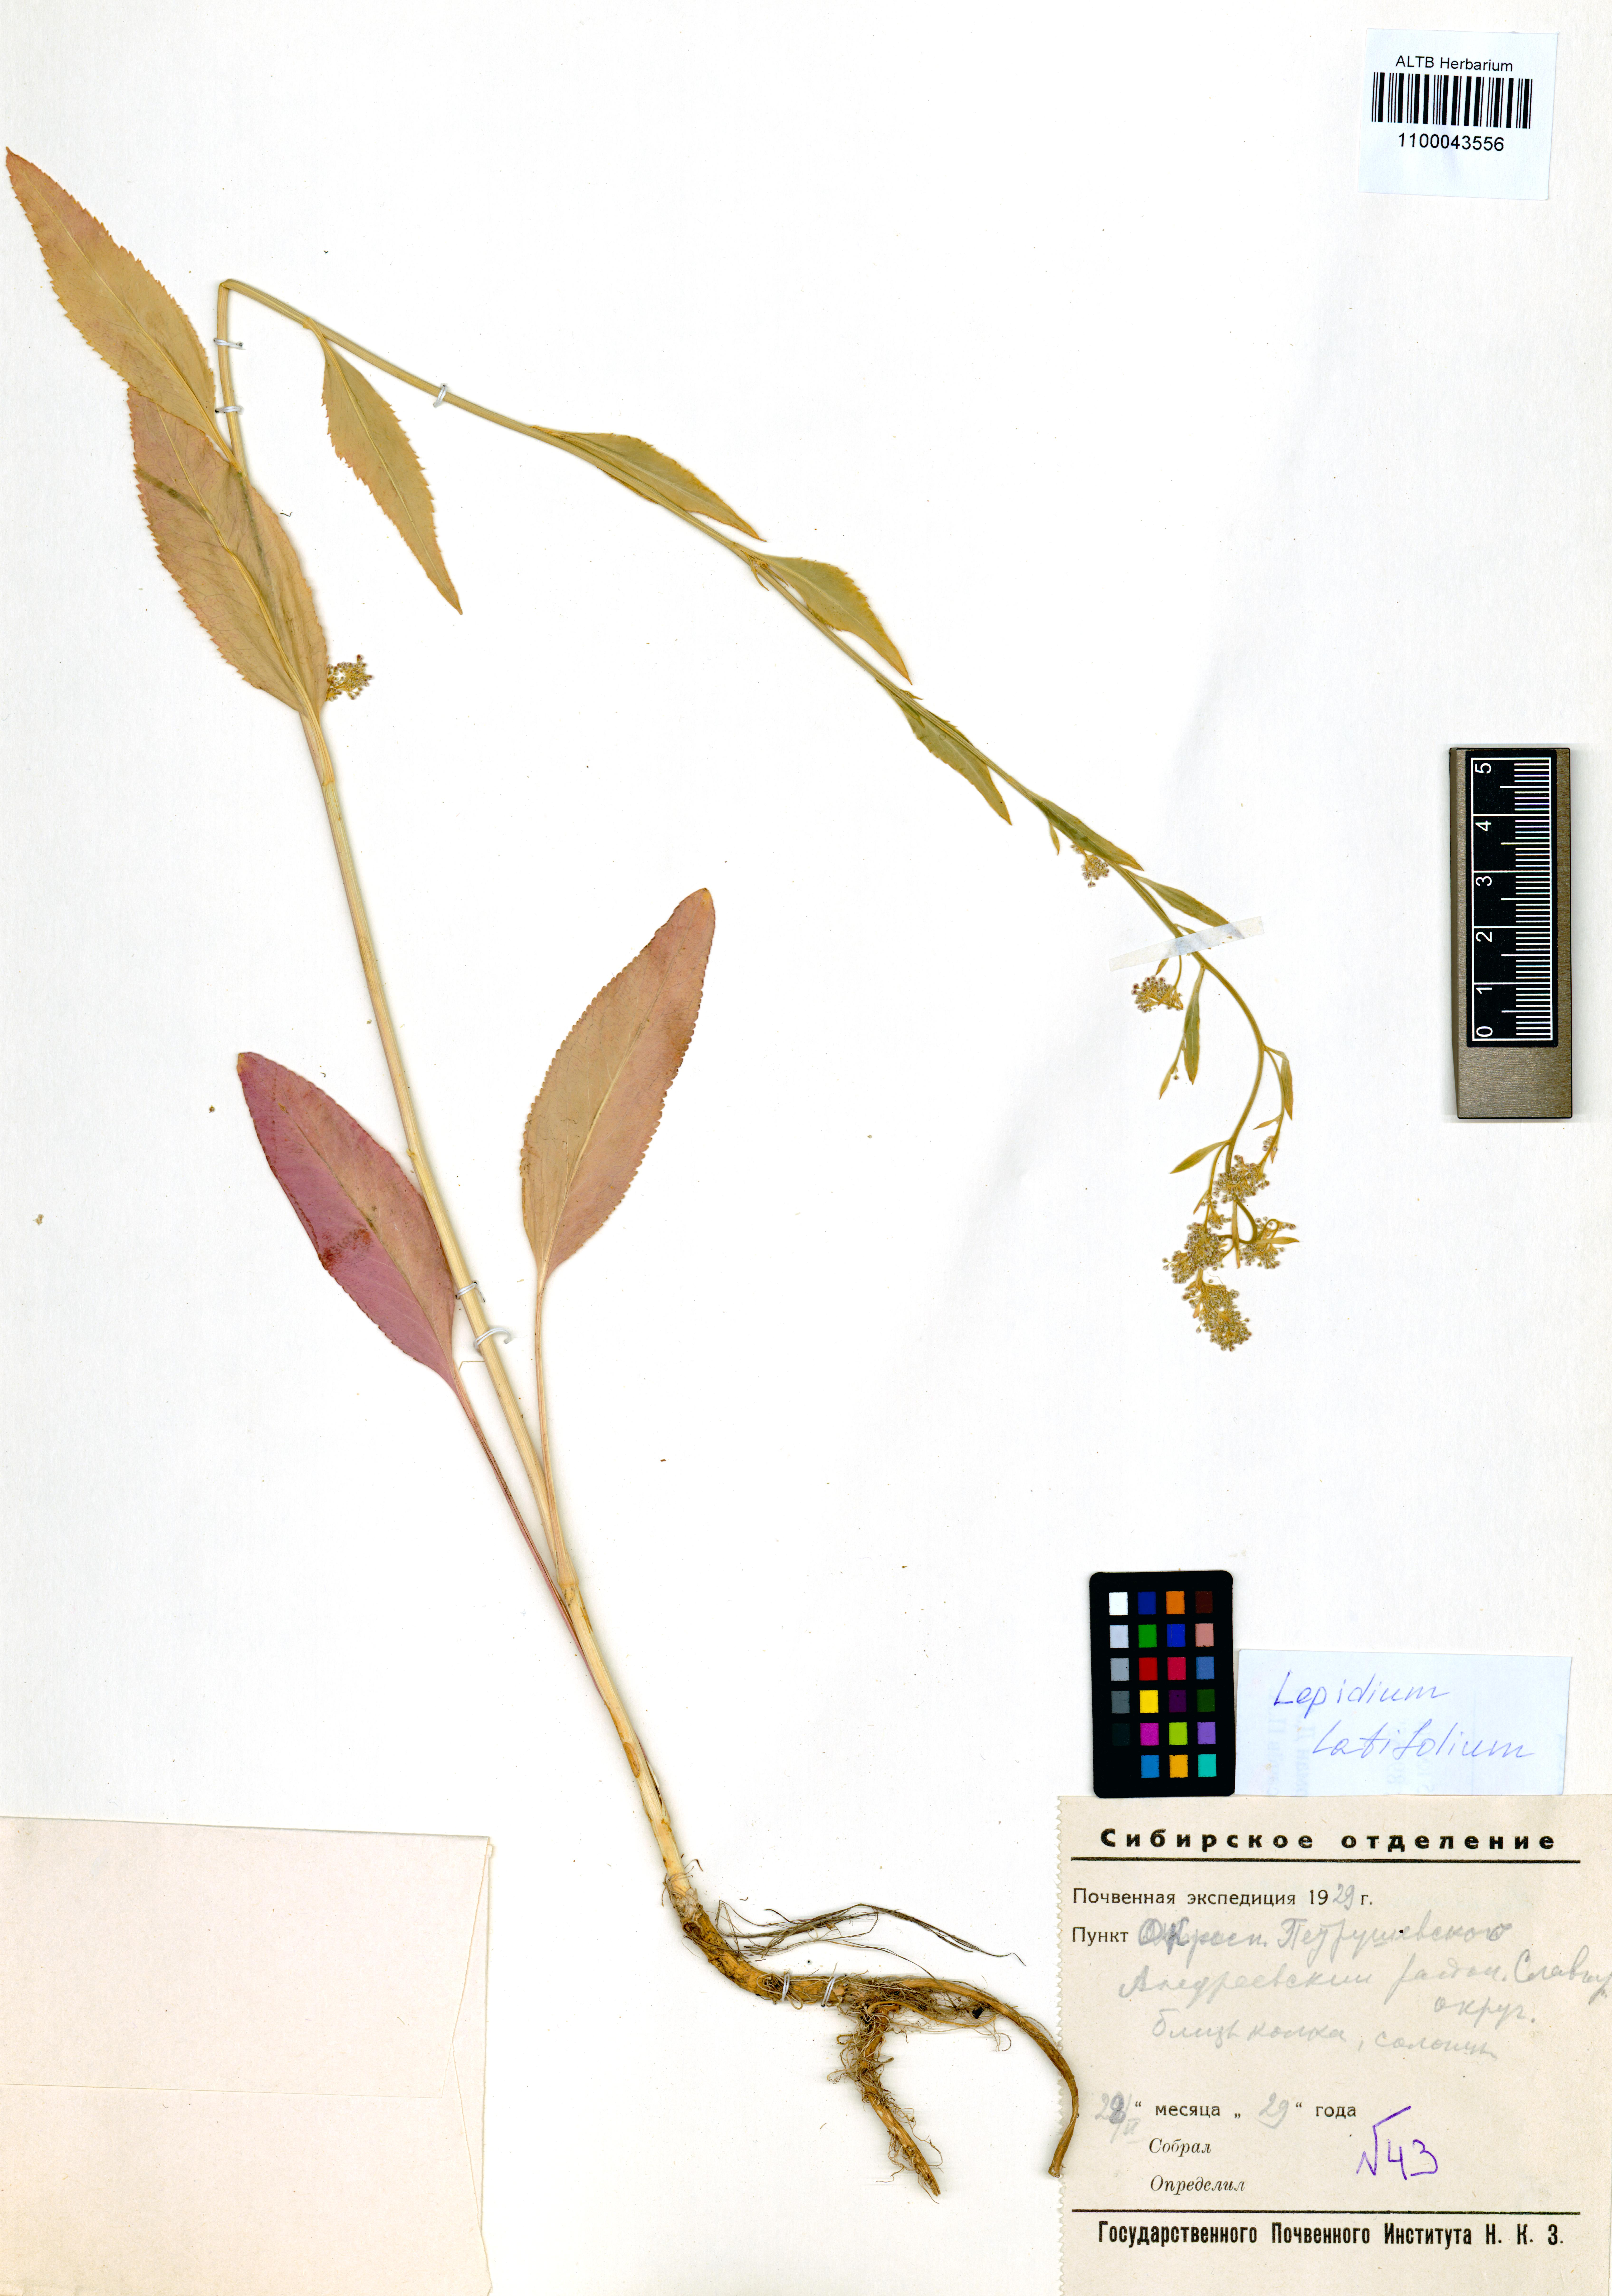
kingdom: Plantae
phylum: Tracheophyta
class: Magnoliopsida
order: Brassicales
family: Brassicaceae
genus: Lepidium
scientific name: Lepidium latifolium
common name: Dittander
